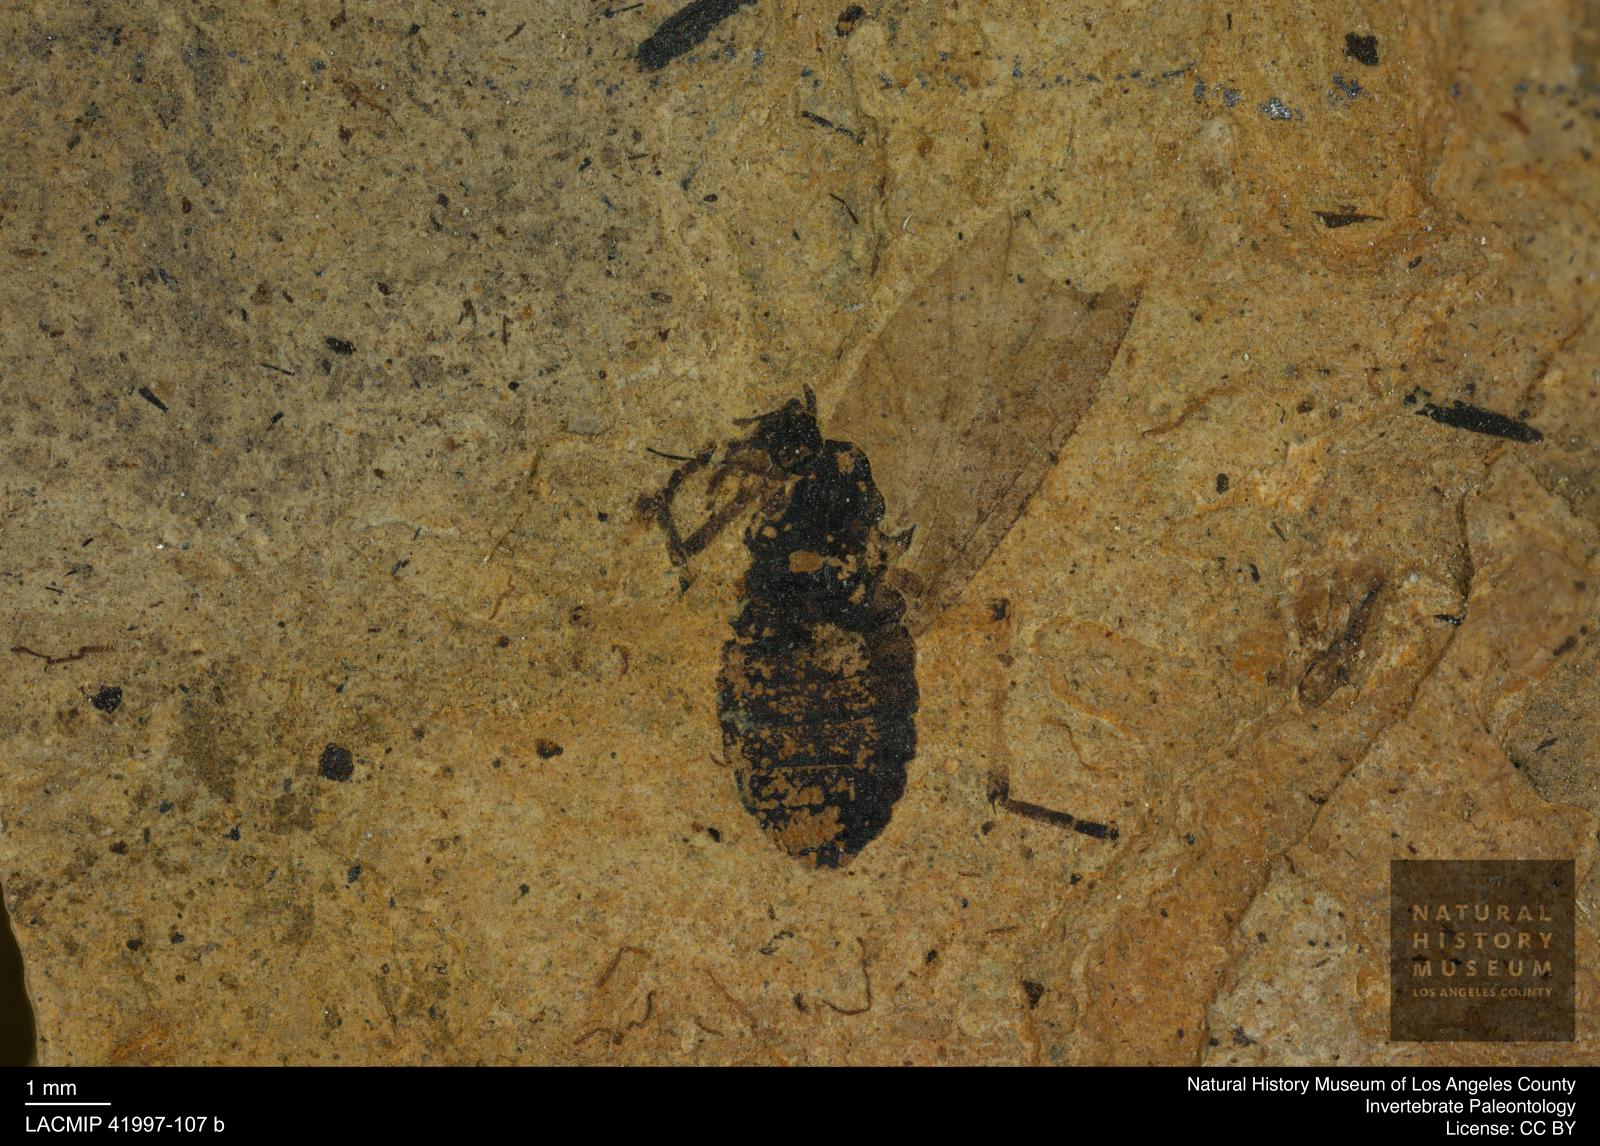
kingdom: Animalia
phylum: Arthropoda
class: Insecta
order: Diptera
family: Bibionidae
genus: Penthetria
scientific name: Penthetria
